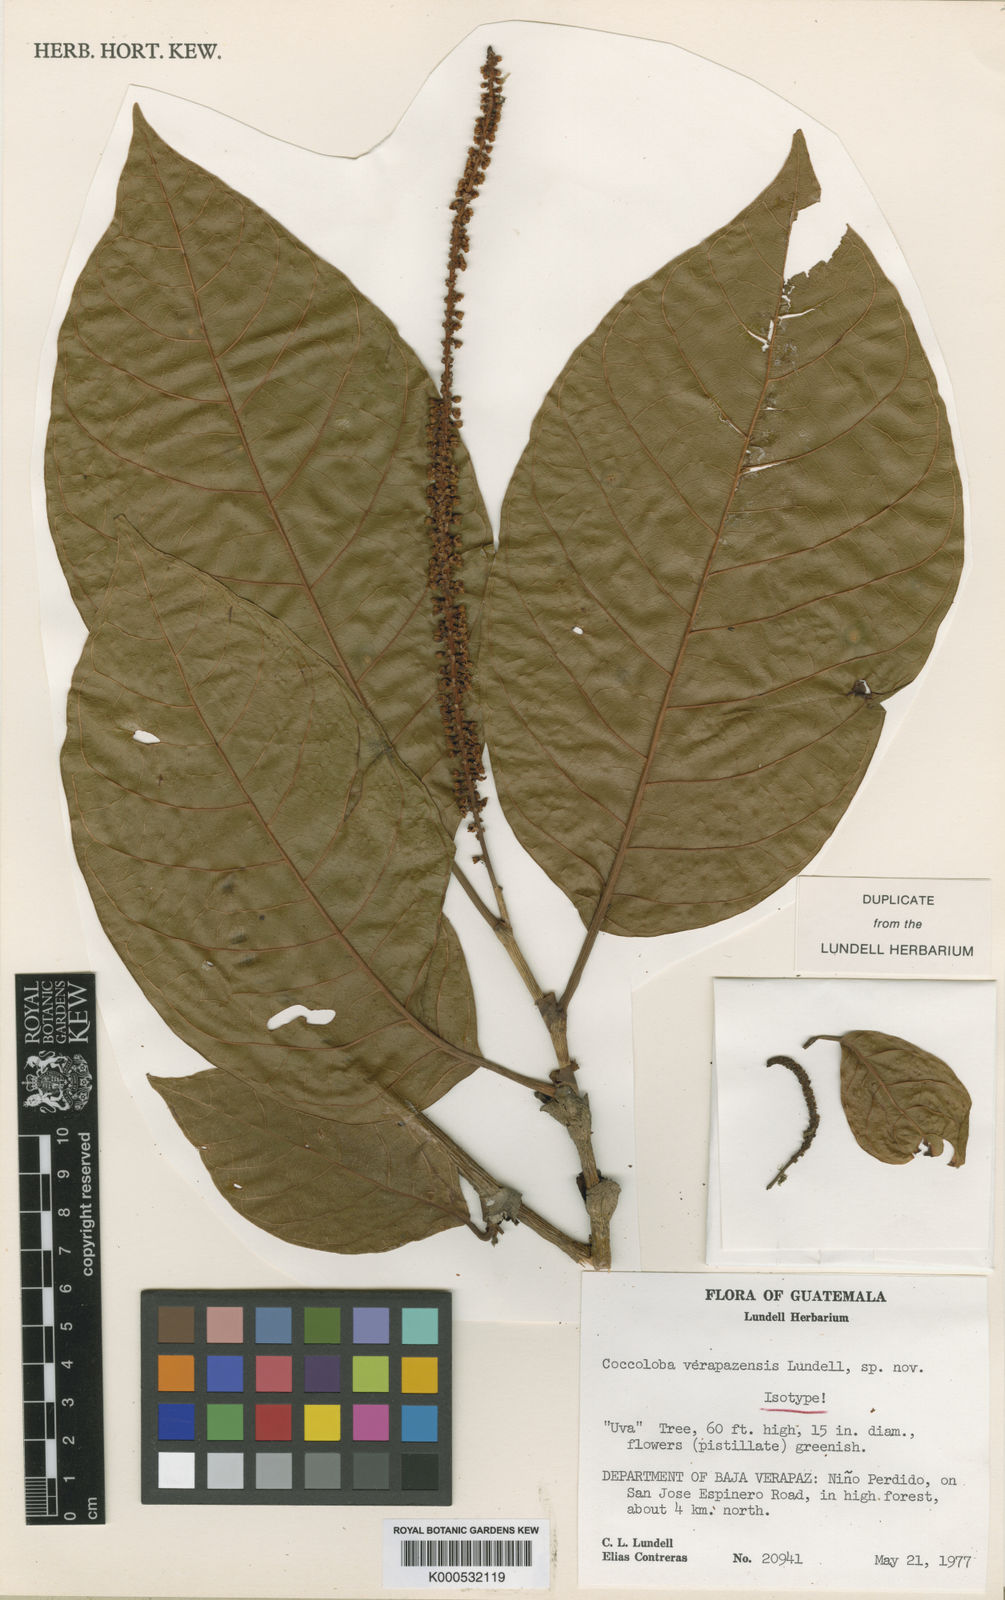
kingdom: Plantae
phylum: Tracheophyta
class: Magnoliopsida
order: Caryophyllales
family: Polygonaceae
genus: Coccoloba
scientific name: Coccoloba hondurensis
